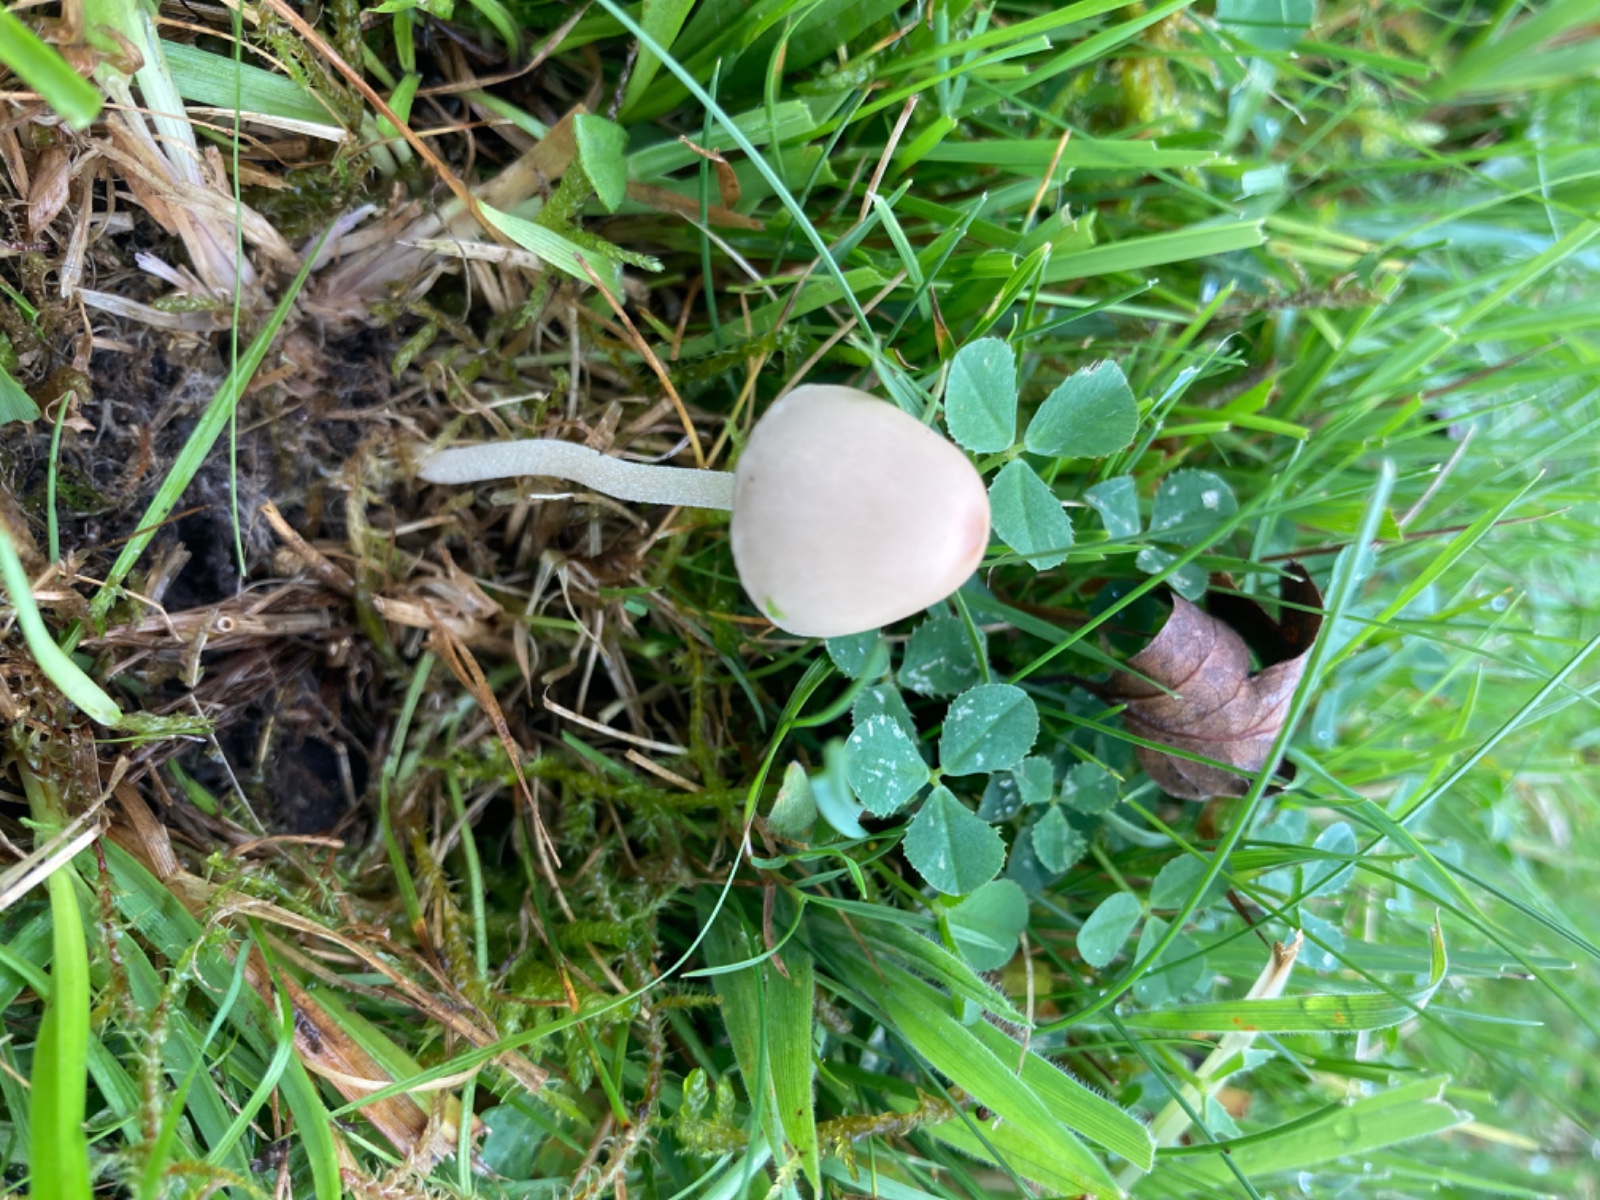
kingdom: Fungi
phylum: Basidiomycota
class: Agaricomycetes
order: Agaricales
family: Bolbitiaceae
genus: Conocybe
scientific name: Conocybe alboradicans
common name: rod-keglehat
